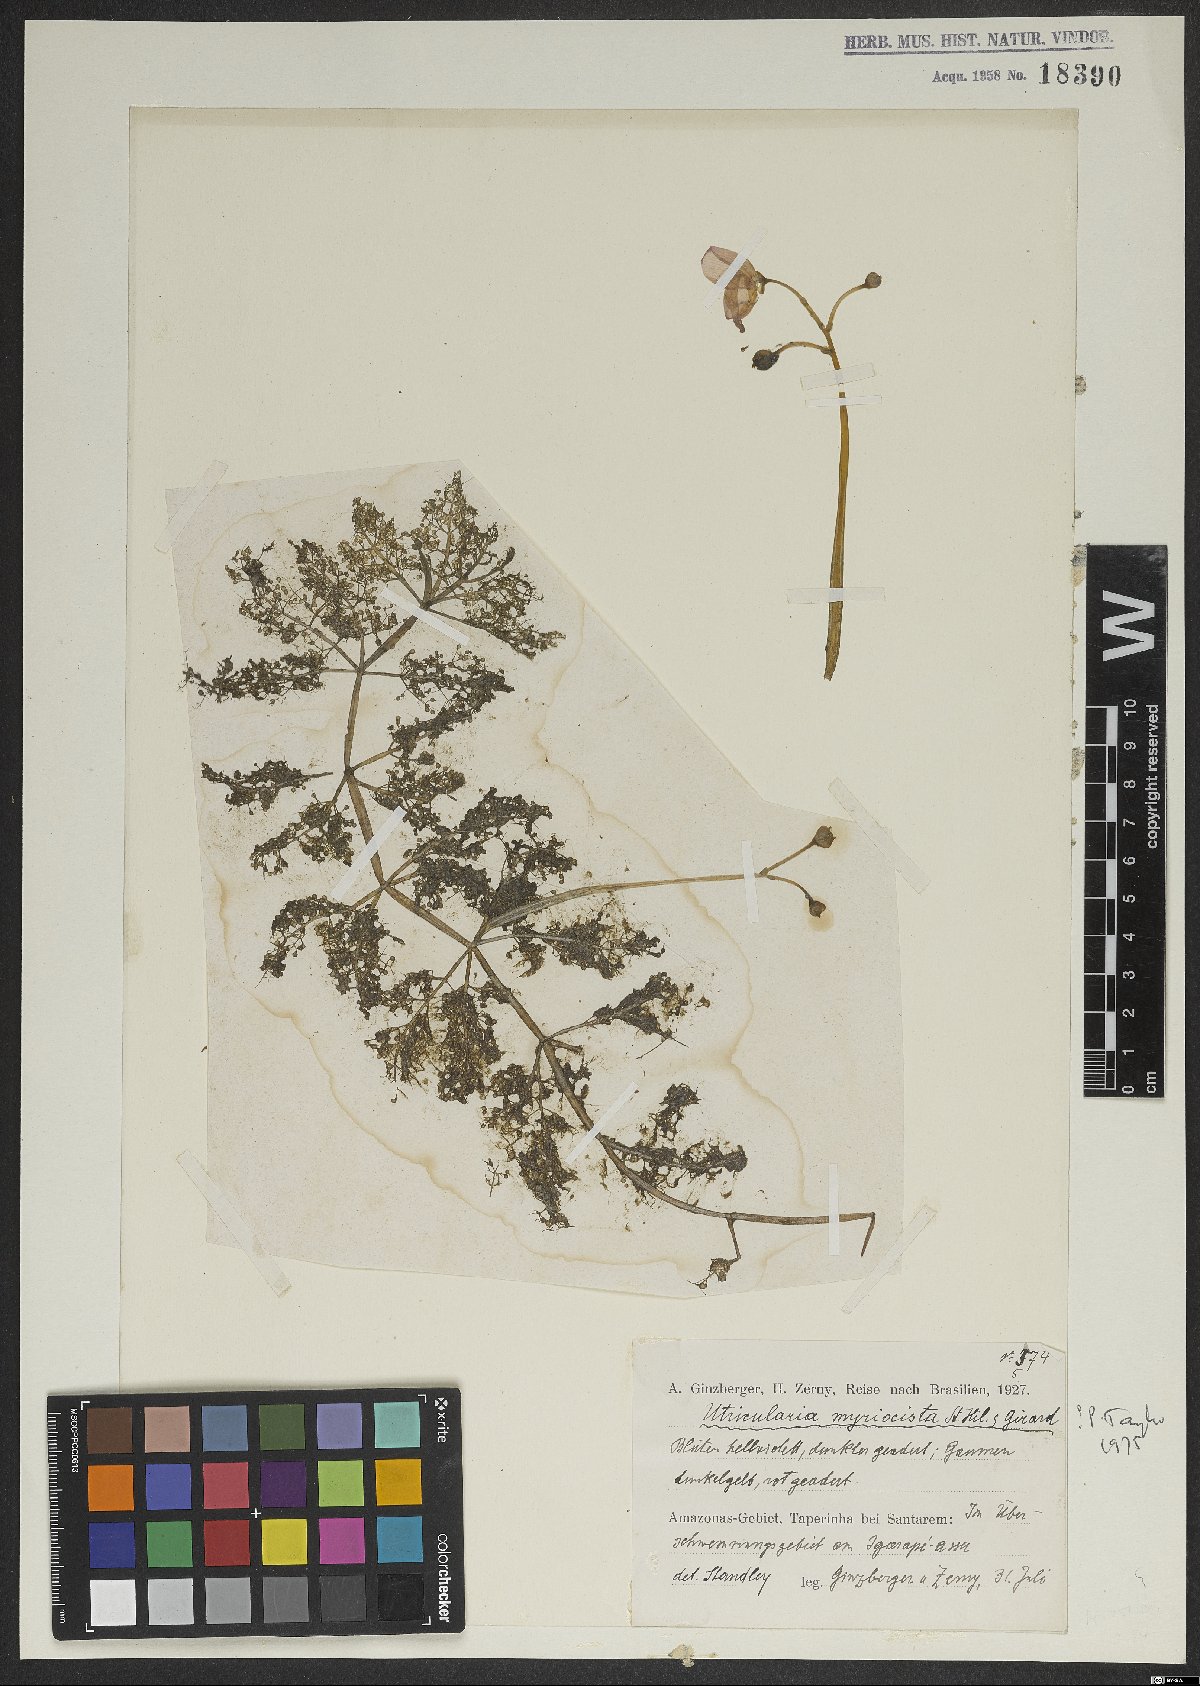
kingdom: Plantae
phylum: Tracheophyta
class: Magnoliopsida
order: Lamiales
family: Lentibulariaceae
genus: Utricularia
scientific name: Utricularia myriocista
